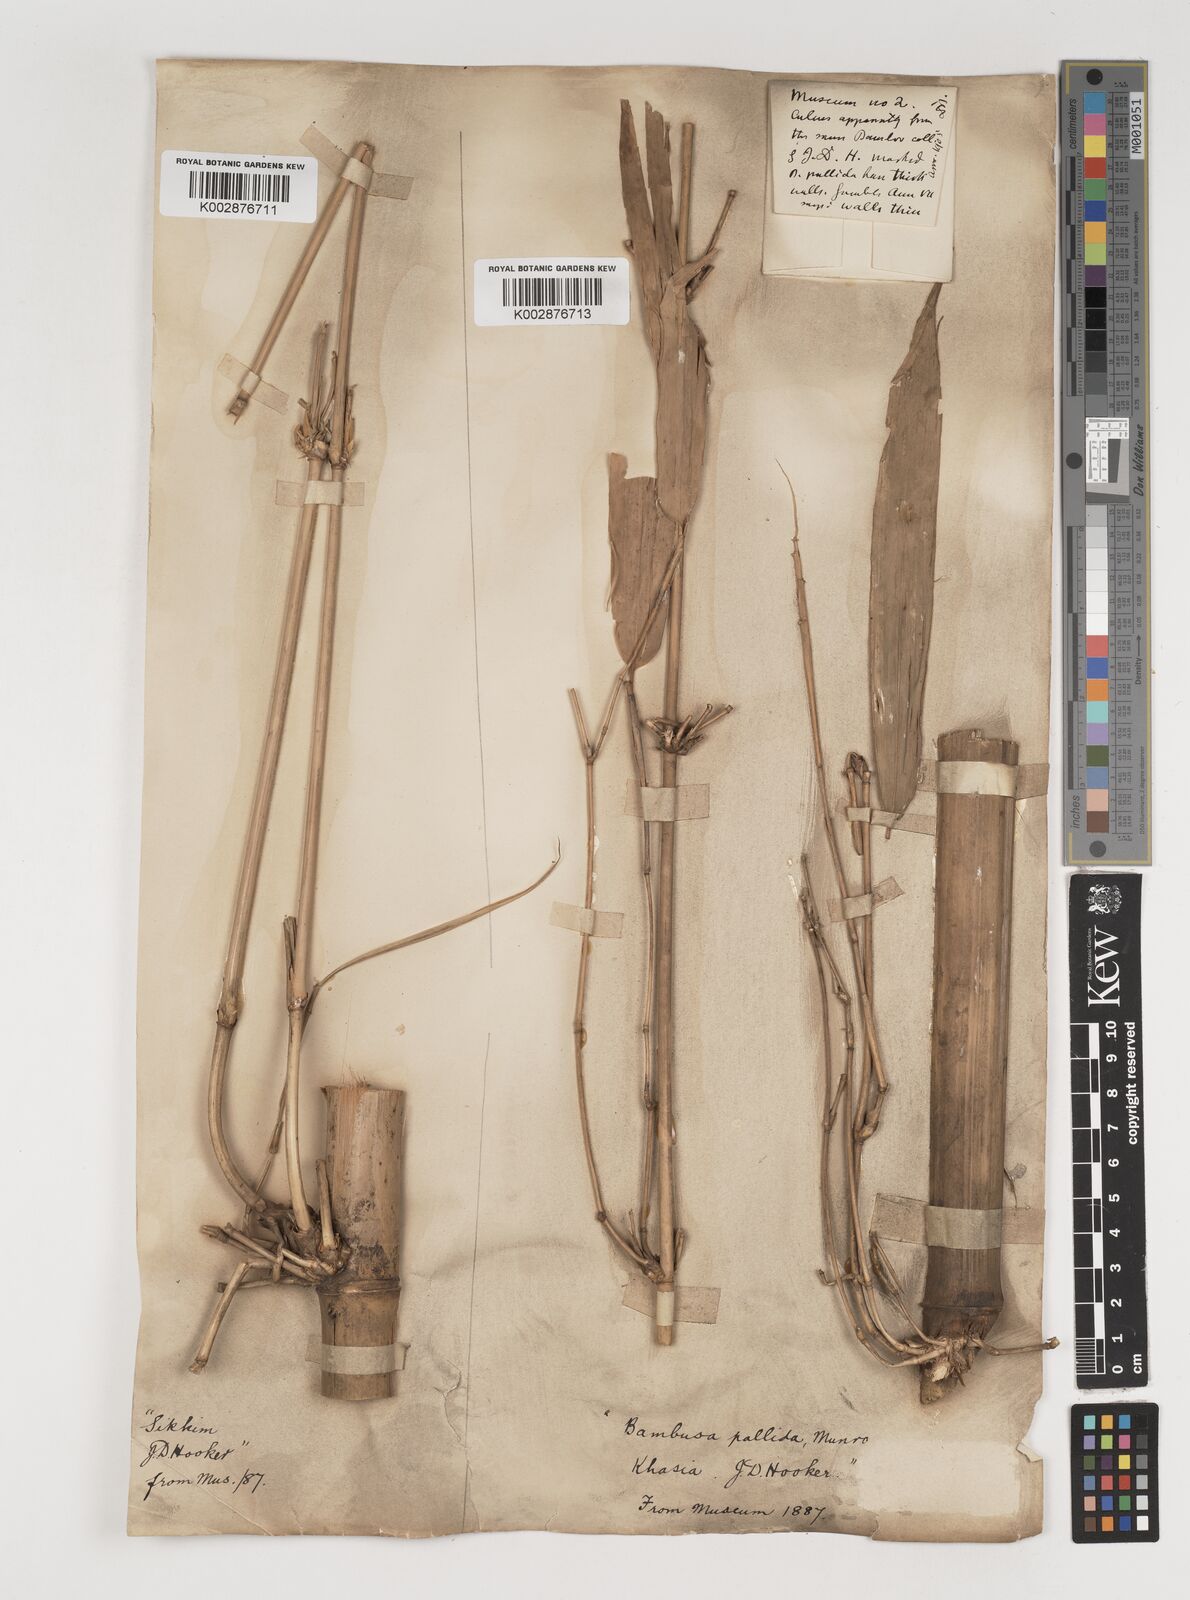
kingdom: Plantae
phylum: Tracheophyta
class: Liliopsida
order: Poales
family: Poaceae
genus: Bambusa
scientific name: Bambusa pallida
